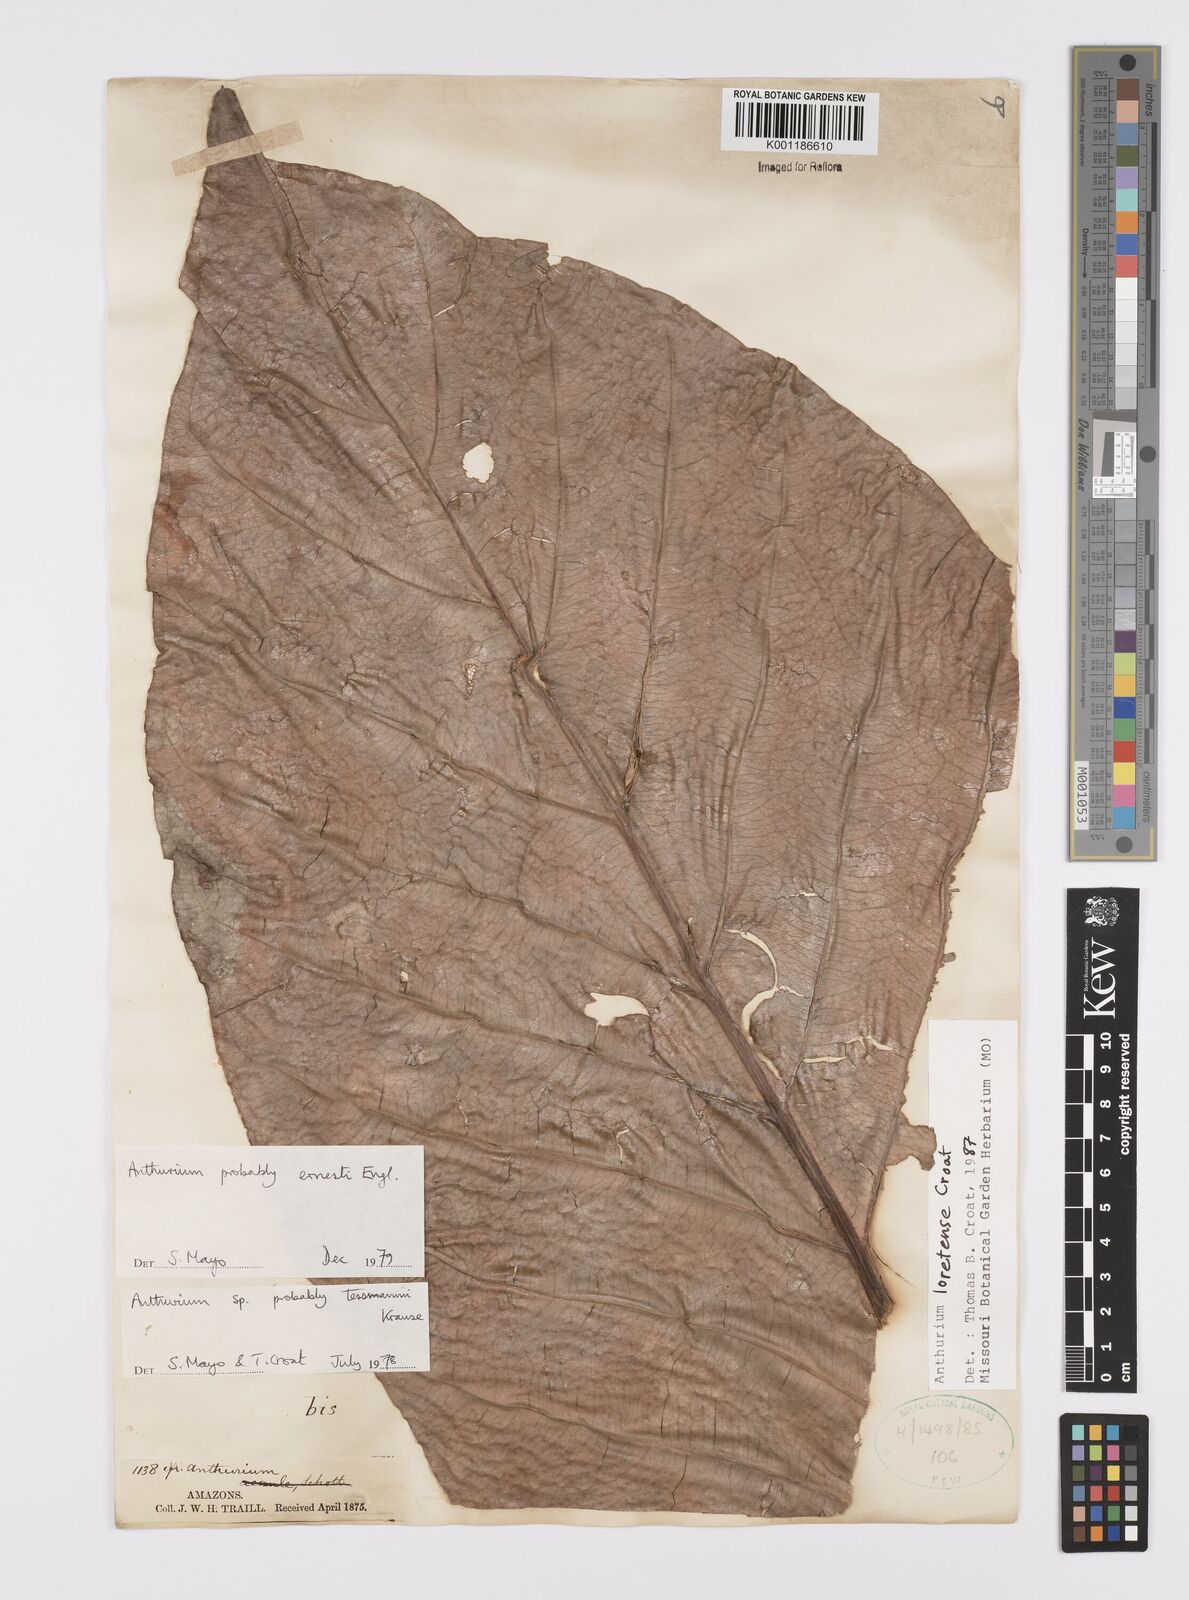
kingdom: Plantae
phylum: Tracheophyta
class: Liliopsida
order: Alismatales
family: Araceae
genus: Anthurium
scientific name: Anthurium loretense
